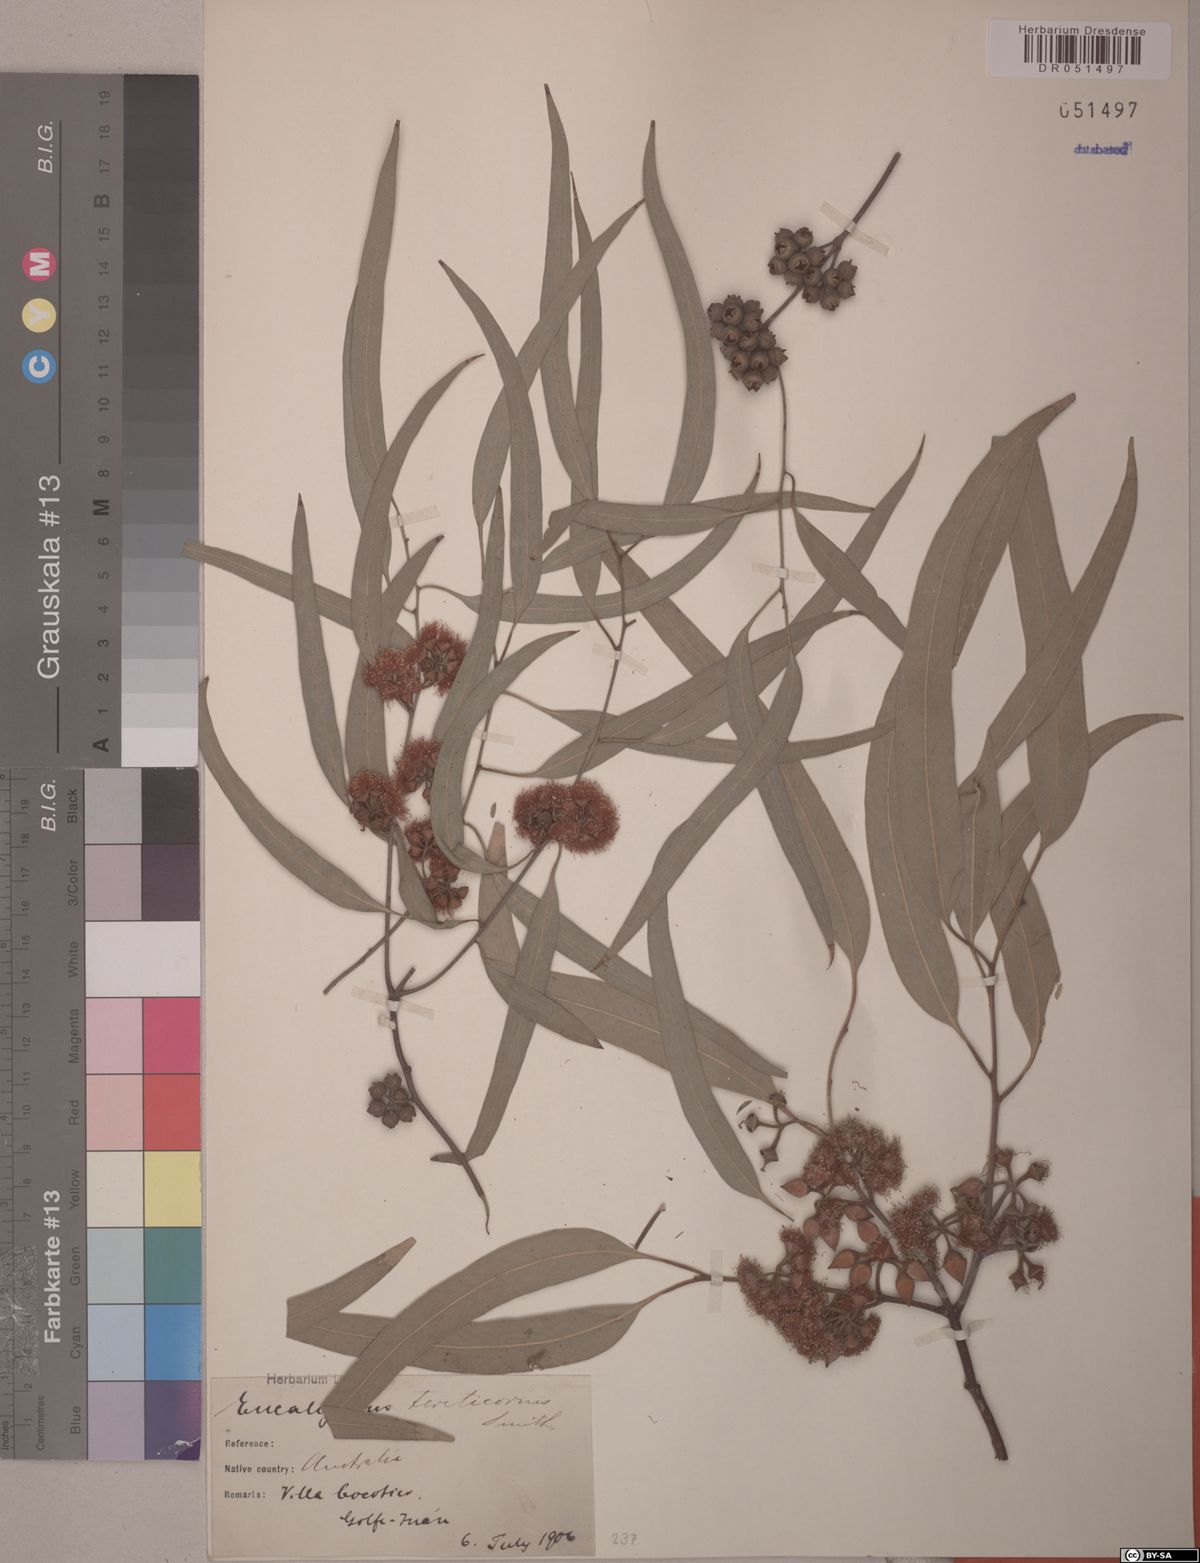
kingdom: Plantae
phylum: Tracheophyta
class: Magnoliopsida
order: Myrtales
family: Myrtaceae
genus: Eucalyptus
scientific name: Eucalyptus tereticornis
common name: Forest redgum
